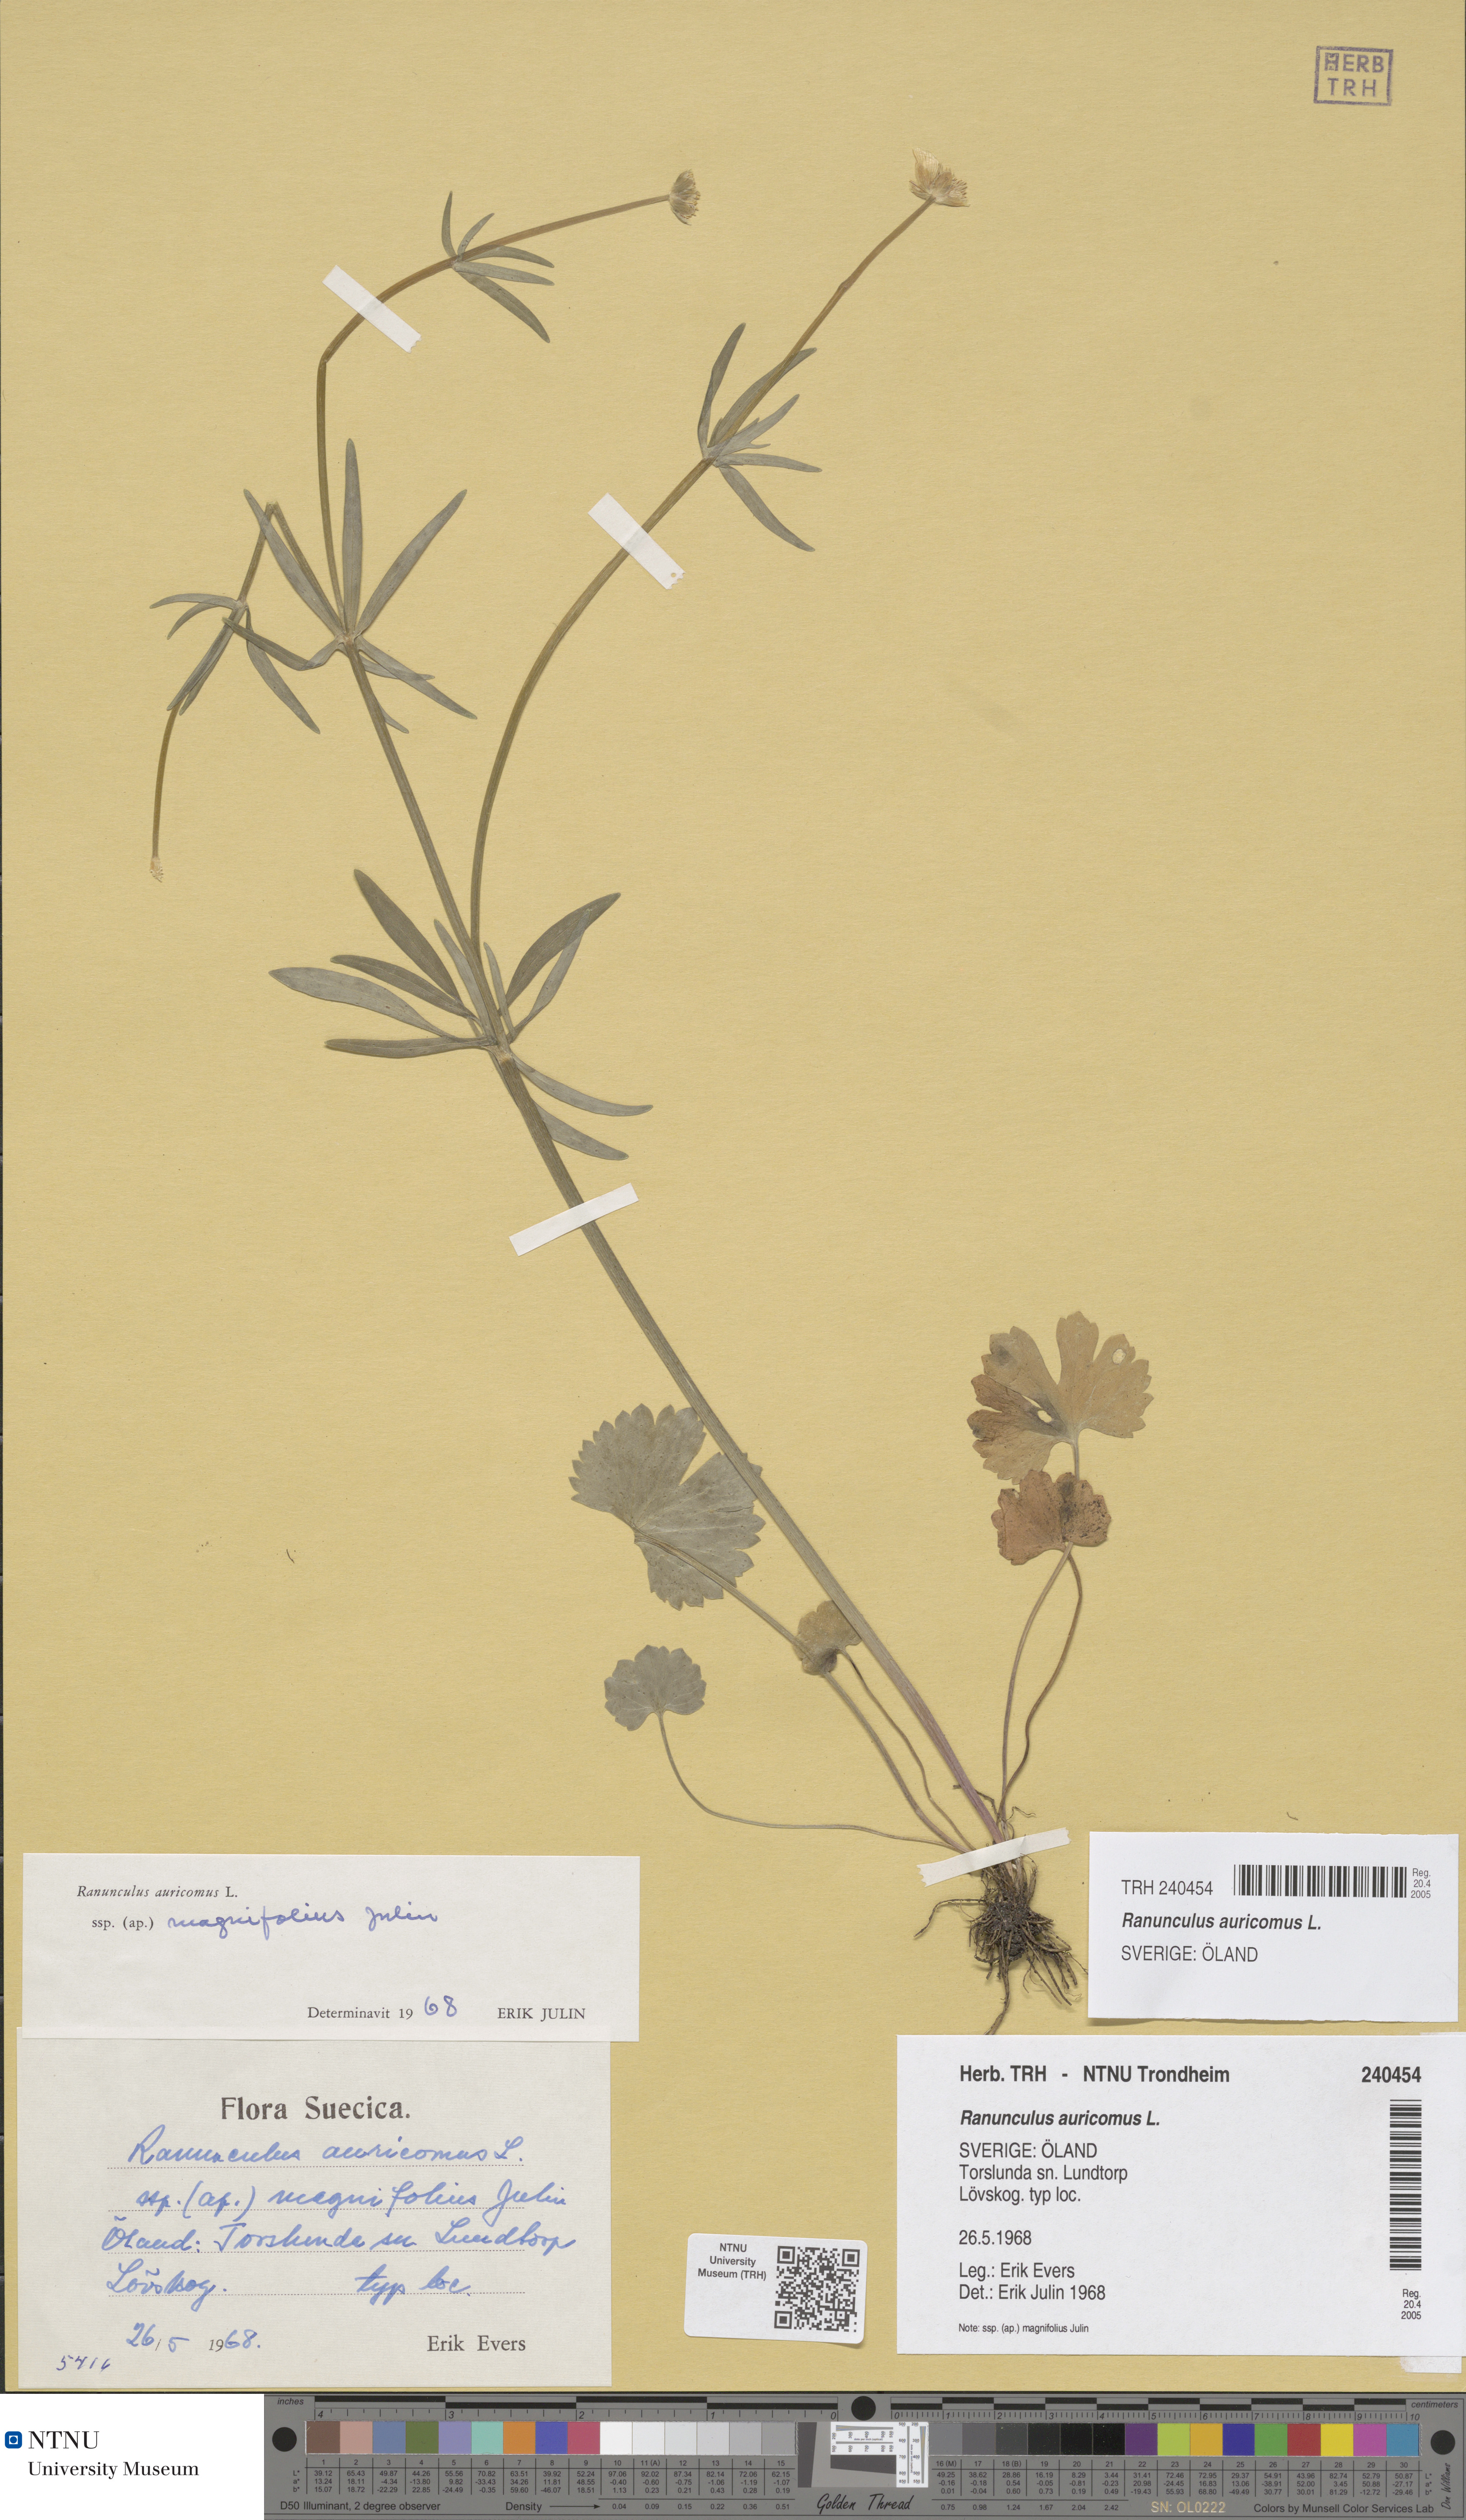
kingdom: Plantae
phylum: Tracheophyta
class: Magnoliopsida
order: Ranunculales
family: Ranunculaceae
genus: Ranunculus
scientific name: Ranunculus auricomus
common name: Goldilocks buttercup
